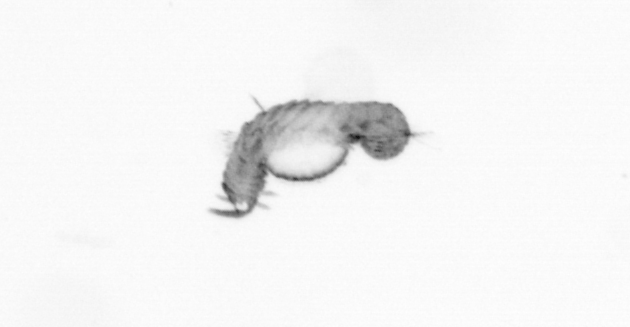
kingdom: Animalia
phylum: Annelida
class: Polychaeta
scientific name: Polychaeta
